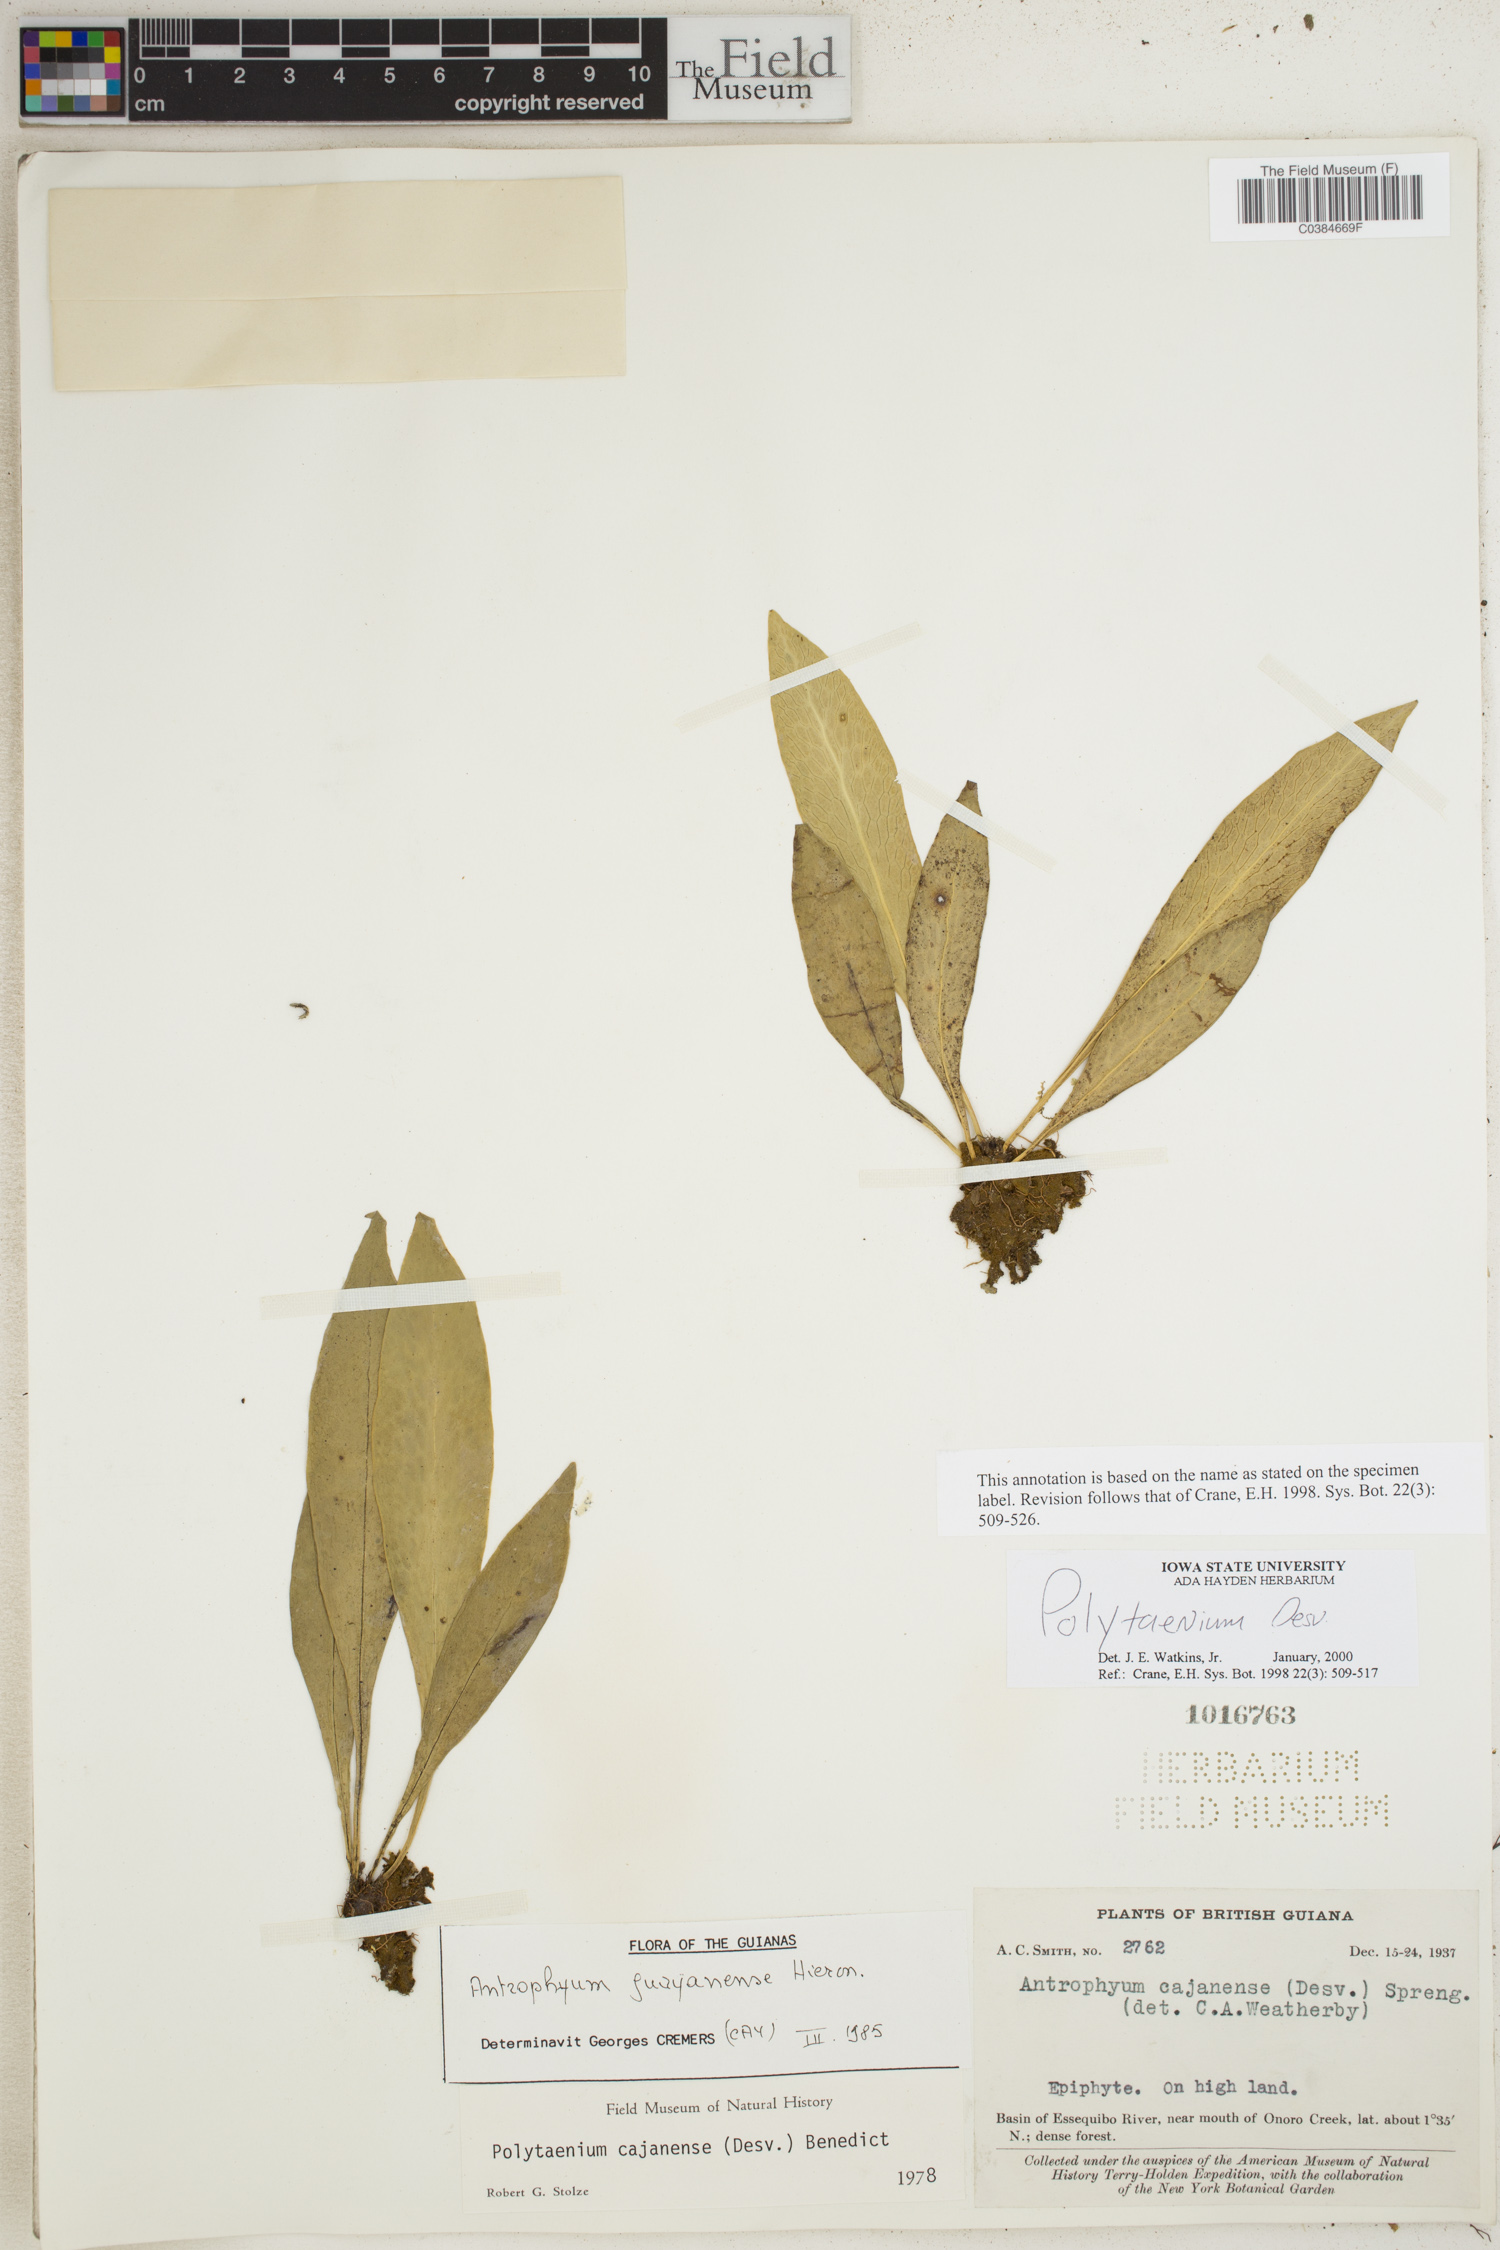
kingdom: Plantae
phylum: Tracheophyta
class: Polypodiopsida
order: Polypodiales
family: Pteridaceae
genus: Polytaenium
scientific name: Polytaenium
